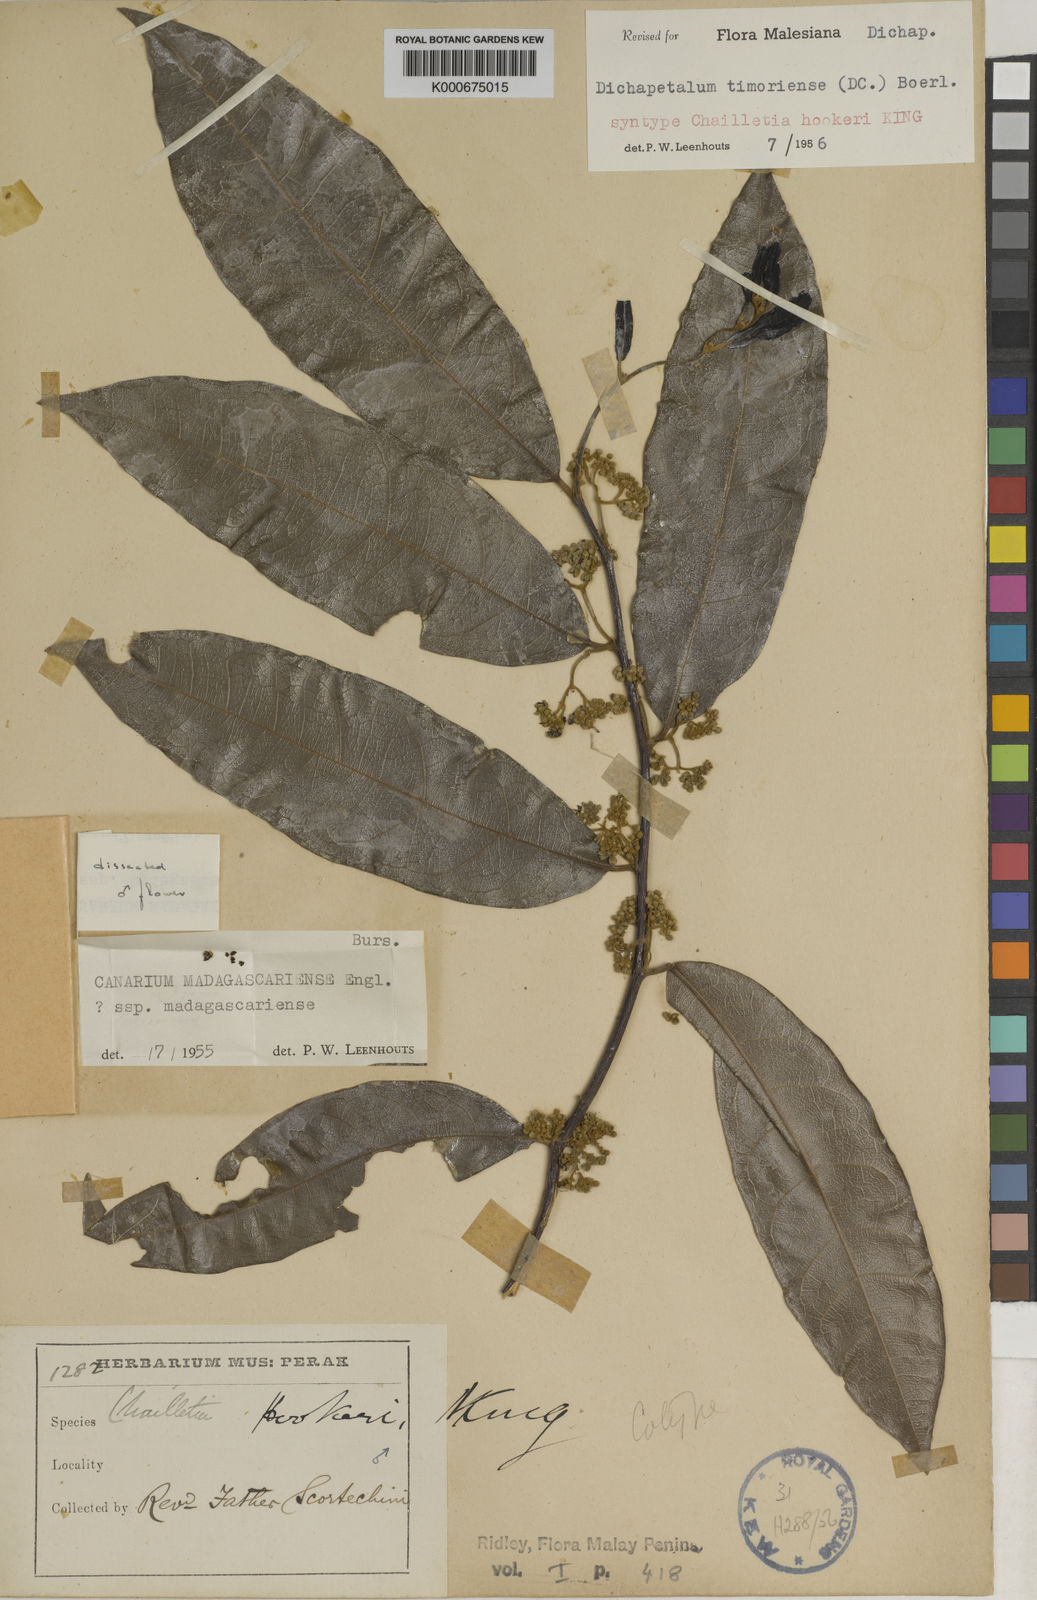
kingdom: Plantae
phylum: Tracheophyta
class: Magnoliopsida
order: Malpighiales
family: Dichapetalaceae
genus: Dichapetalum
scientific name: Dichapetalum timoriense
